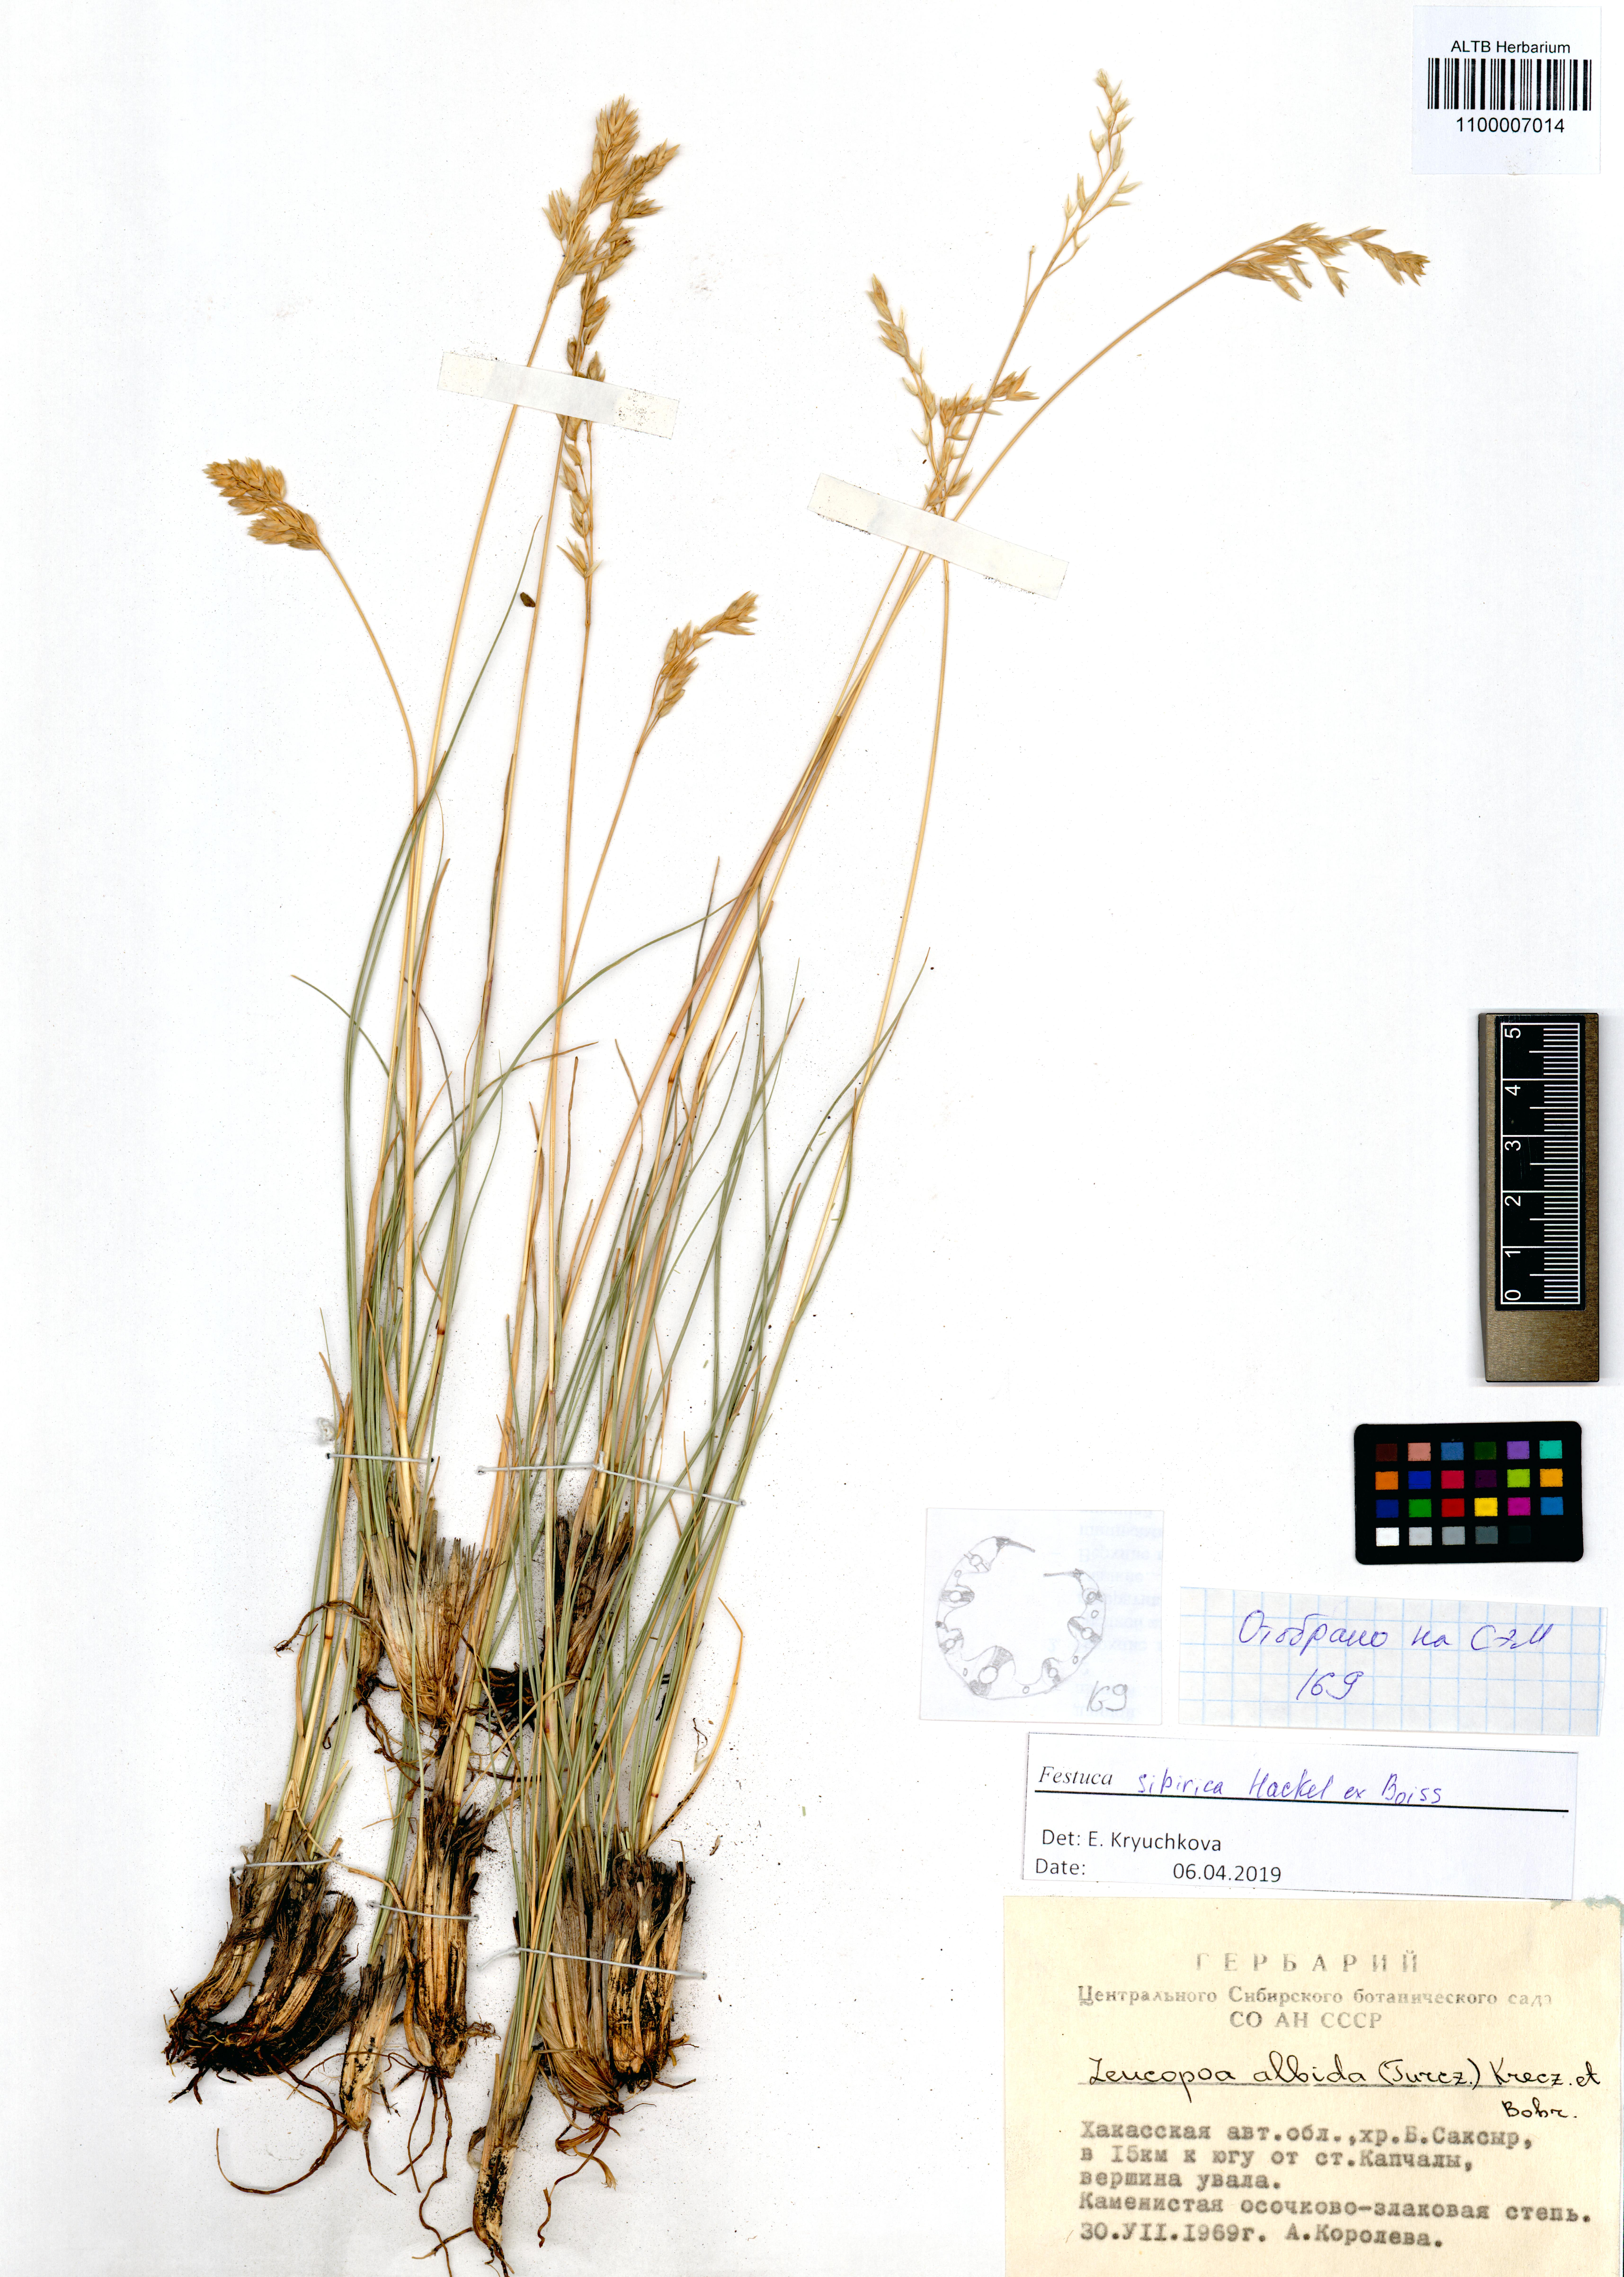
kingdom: Plantae
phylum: Tracheophyta
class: Liliopsida
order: Poales
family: Poaceae
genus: Festuca
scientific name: Festuca sibirica
